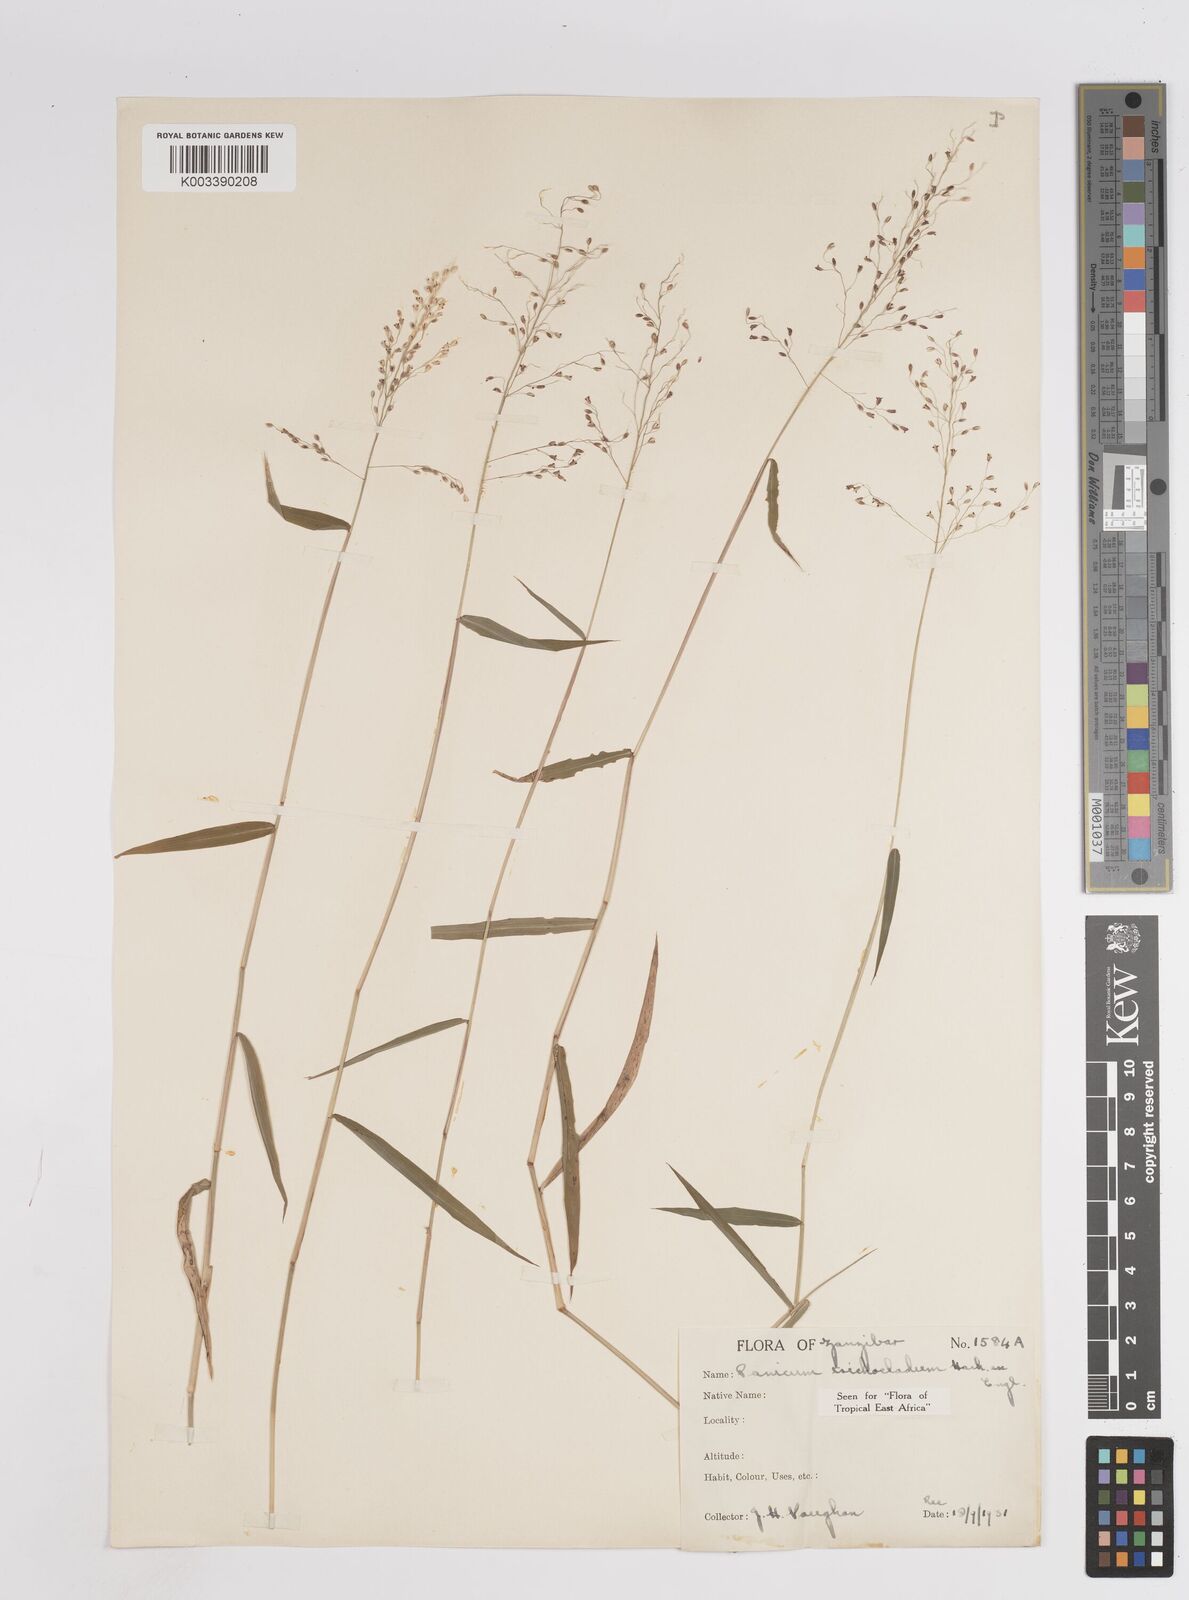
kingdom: Plantae
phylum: Tracheophyta
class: Liliopsida
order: Poales
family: Poaceae
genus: Panicum
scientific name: Panicum trichocladum
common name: Donkey grass
